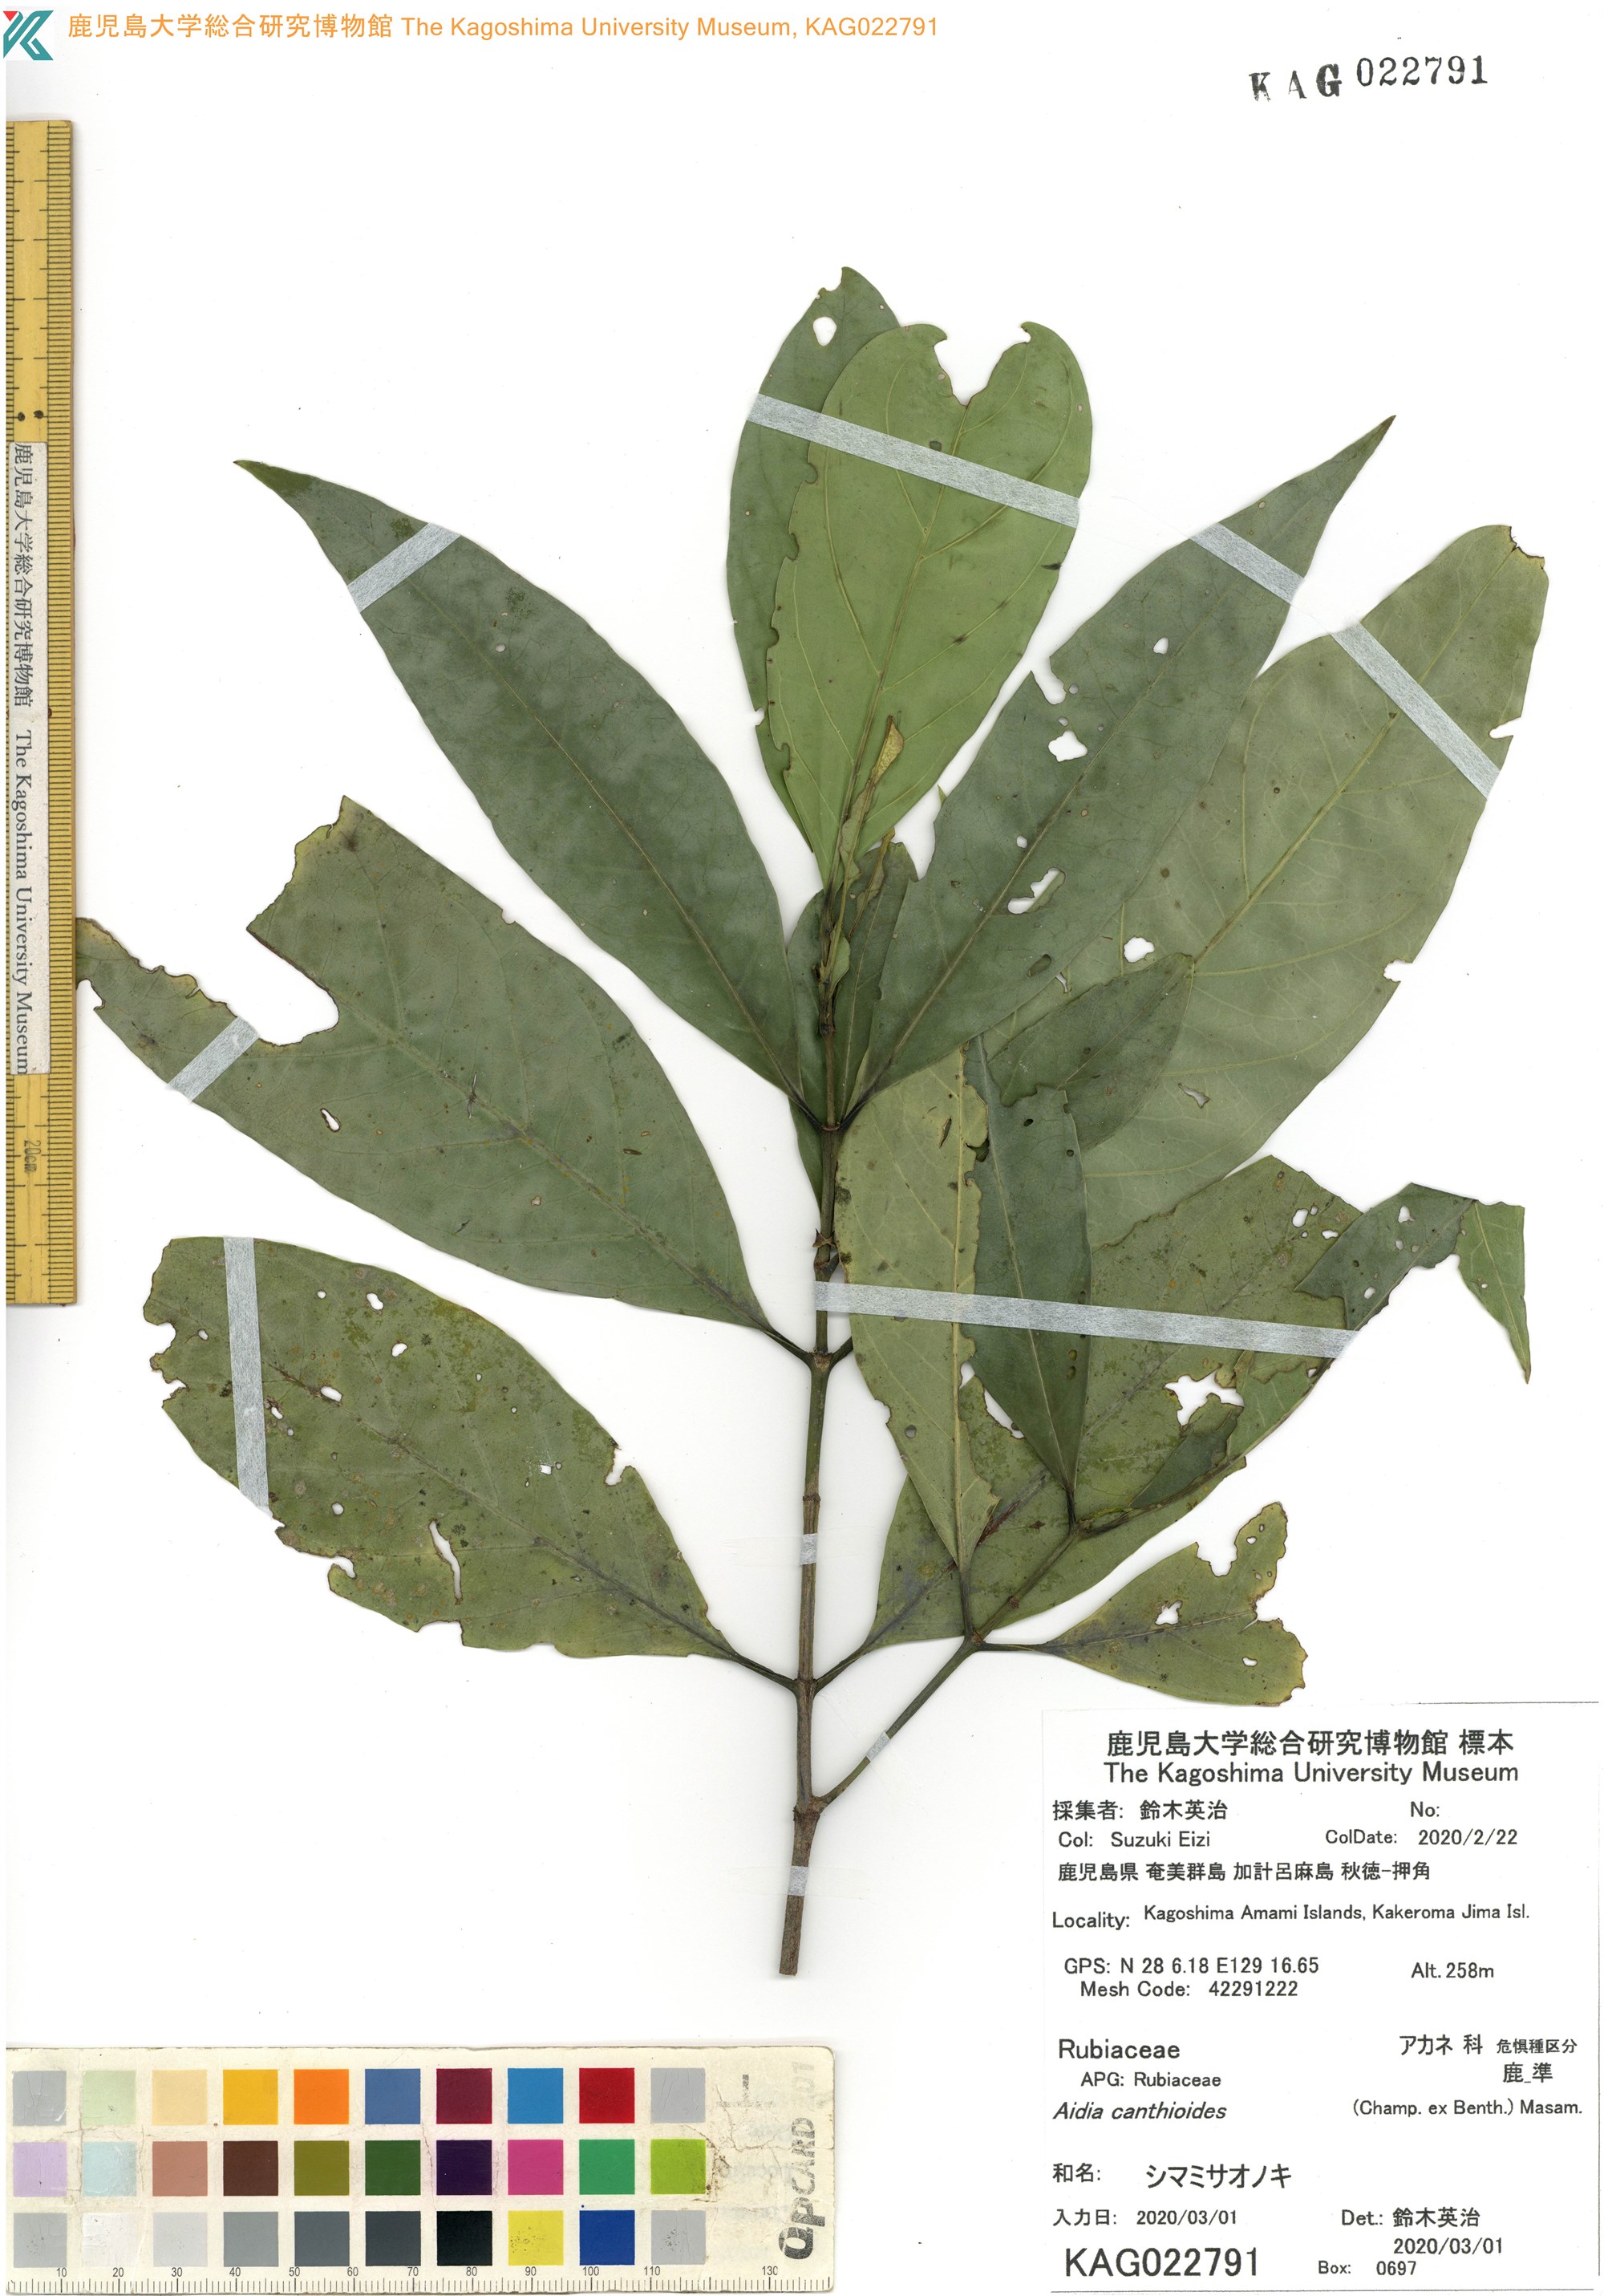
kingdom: Plantae
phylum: Tracheophyta
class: Magnoliopsida
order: Gentianales
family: Rubiaceae
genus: Aidia
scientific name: Aidia canthioides
